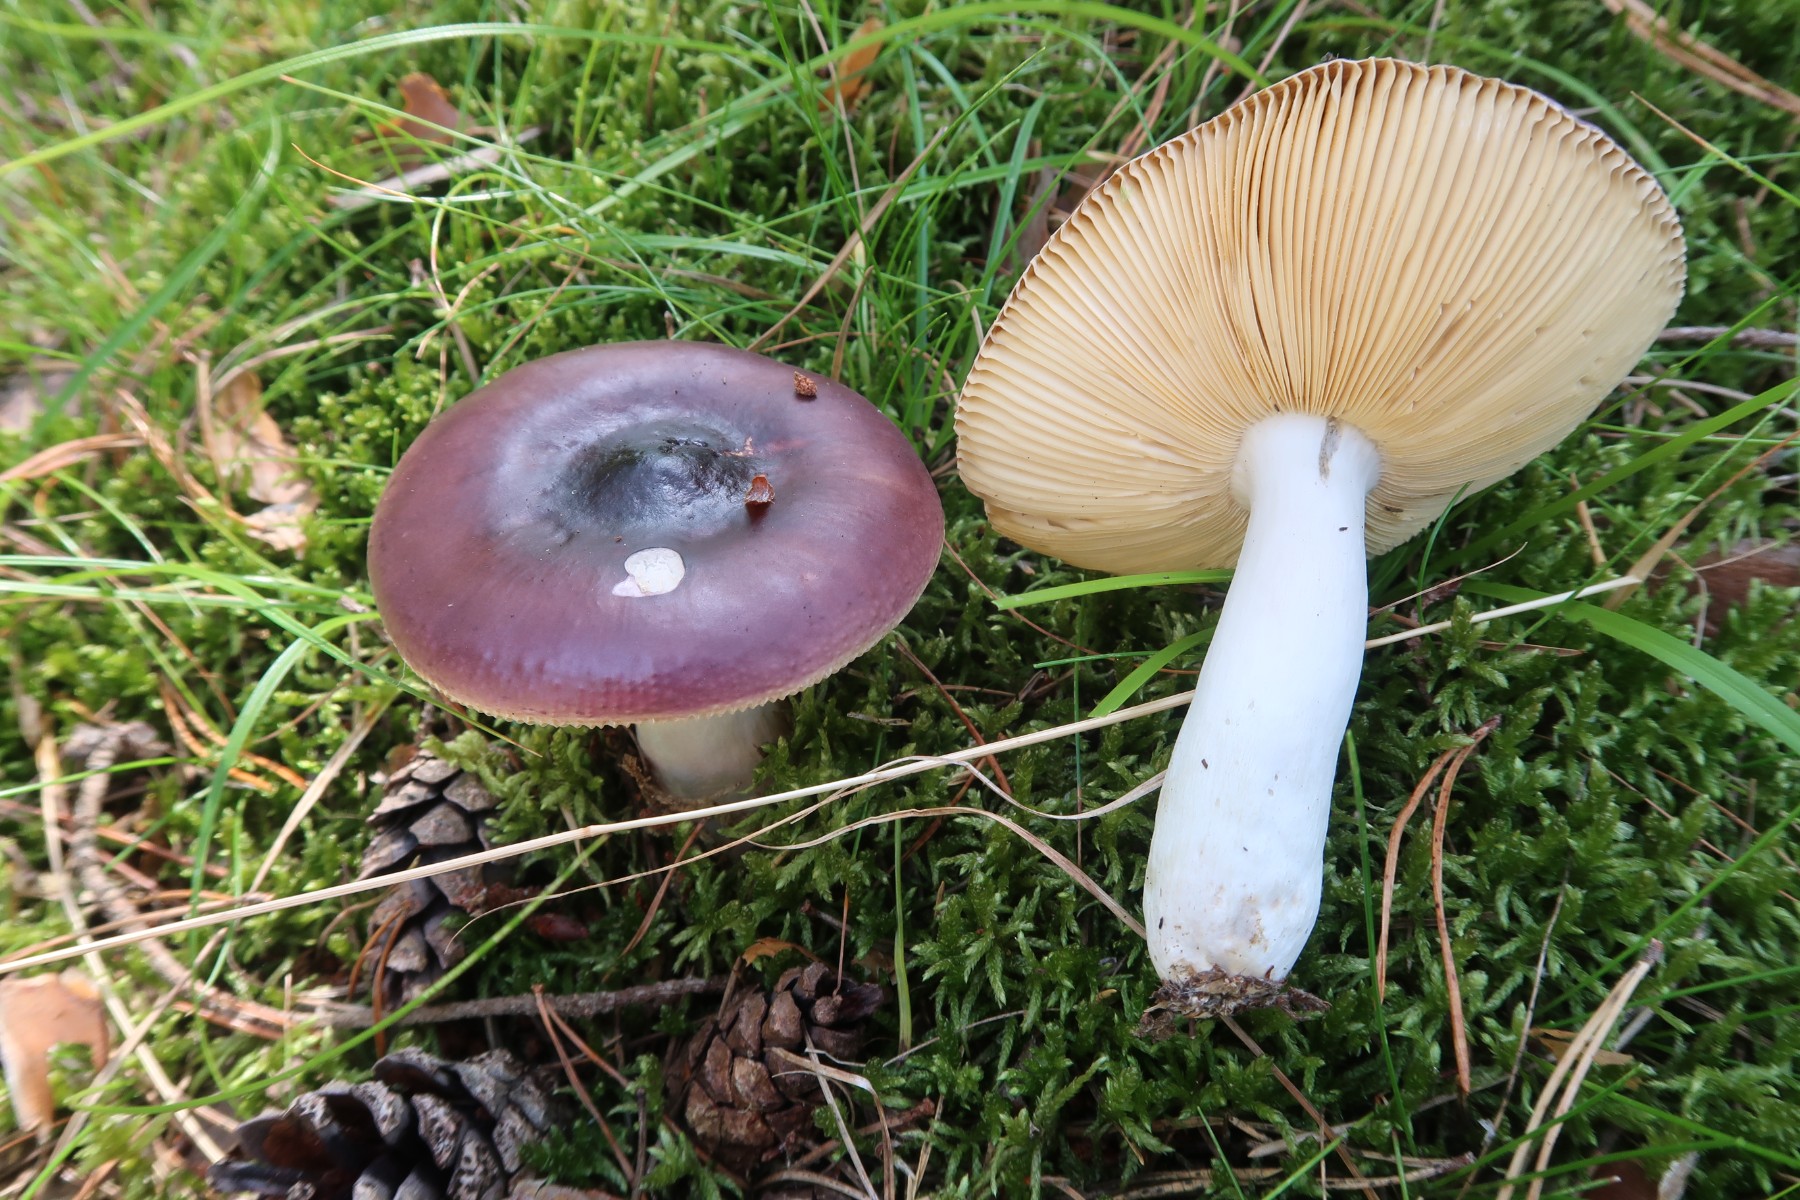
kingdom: Fungi
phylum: Basidiomycota
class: Agaricomycetes
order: Russulales
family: Russulaceae
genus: Russula
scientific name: Russula caerulea
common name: puklet skørhat
